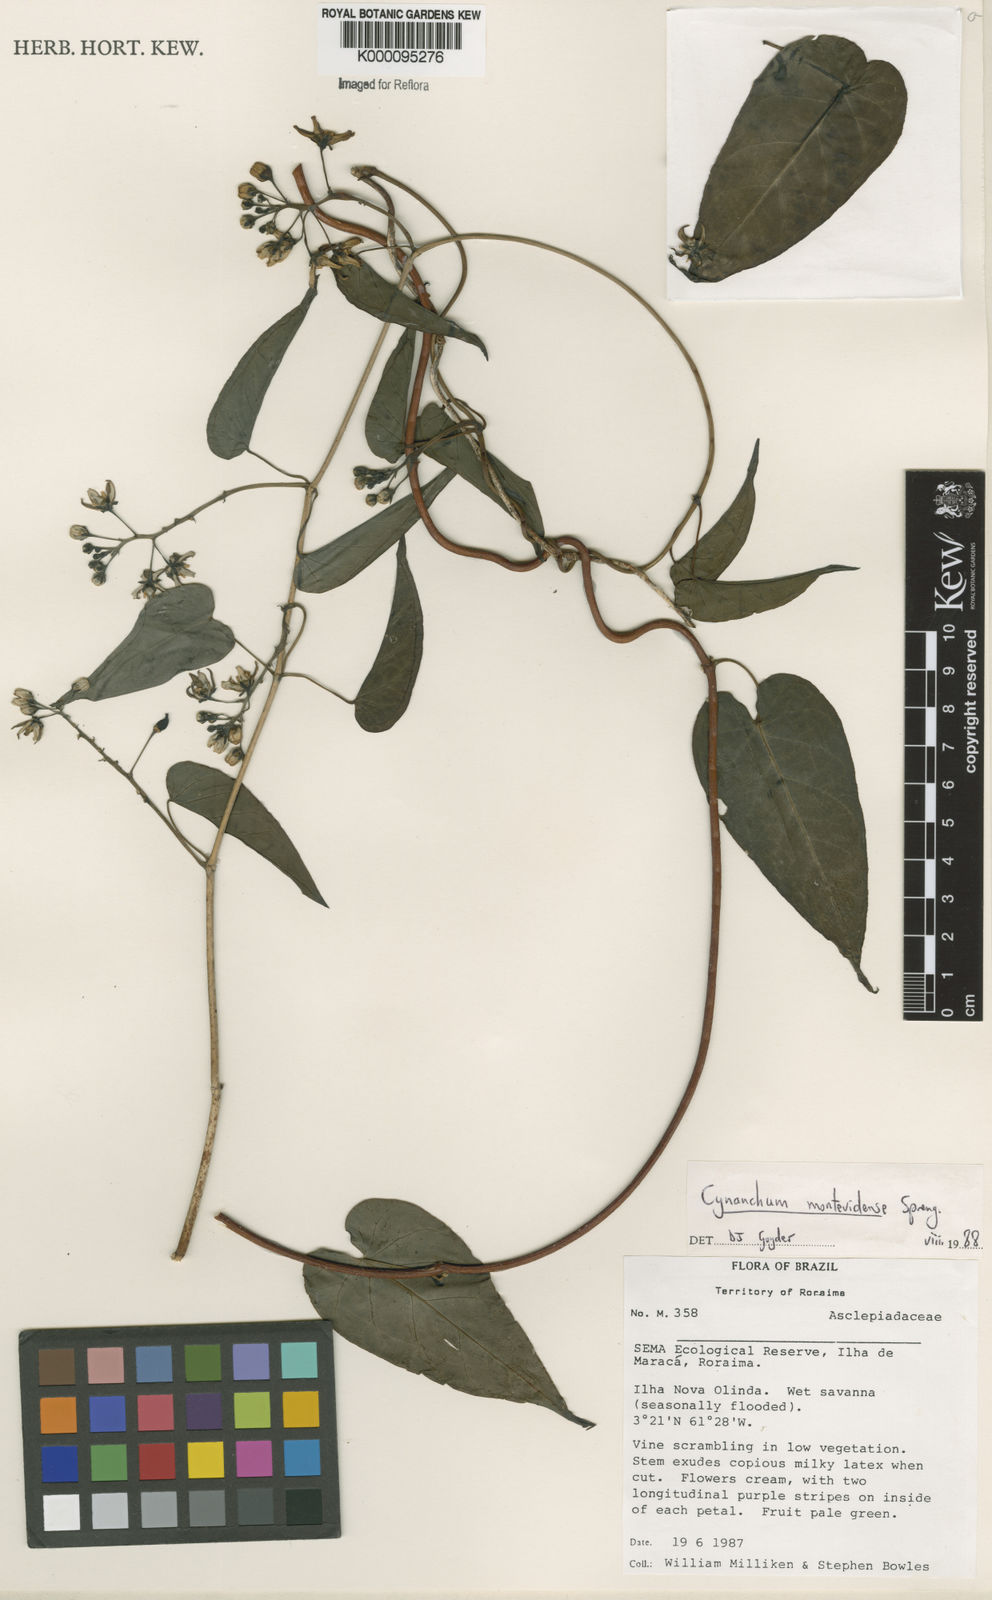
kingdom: Plantae
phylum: Tracheophyta
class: Magnoliopsida
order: Gentianales
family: Apocynaceae
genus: Cynanchum
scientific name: Cynanchum montevidense
